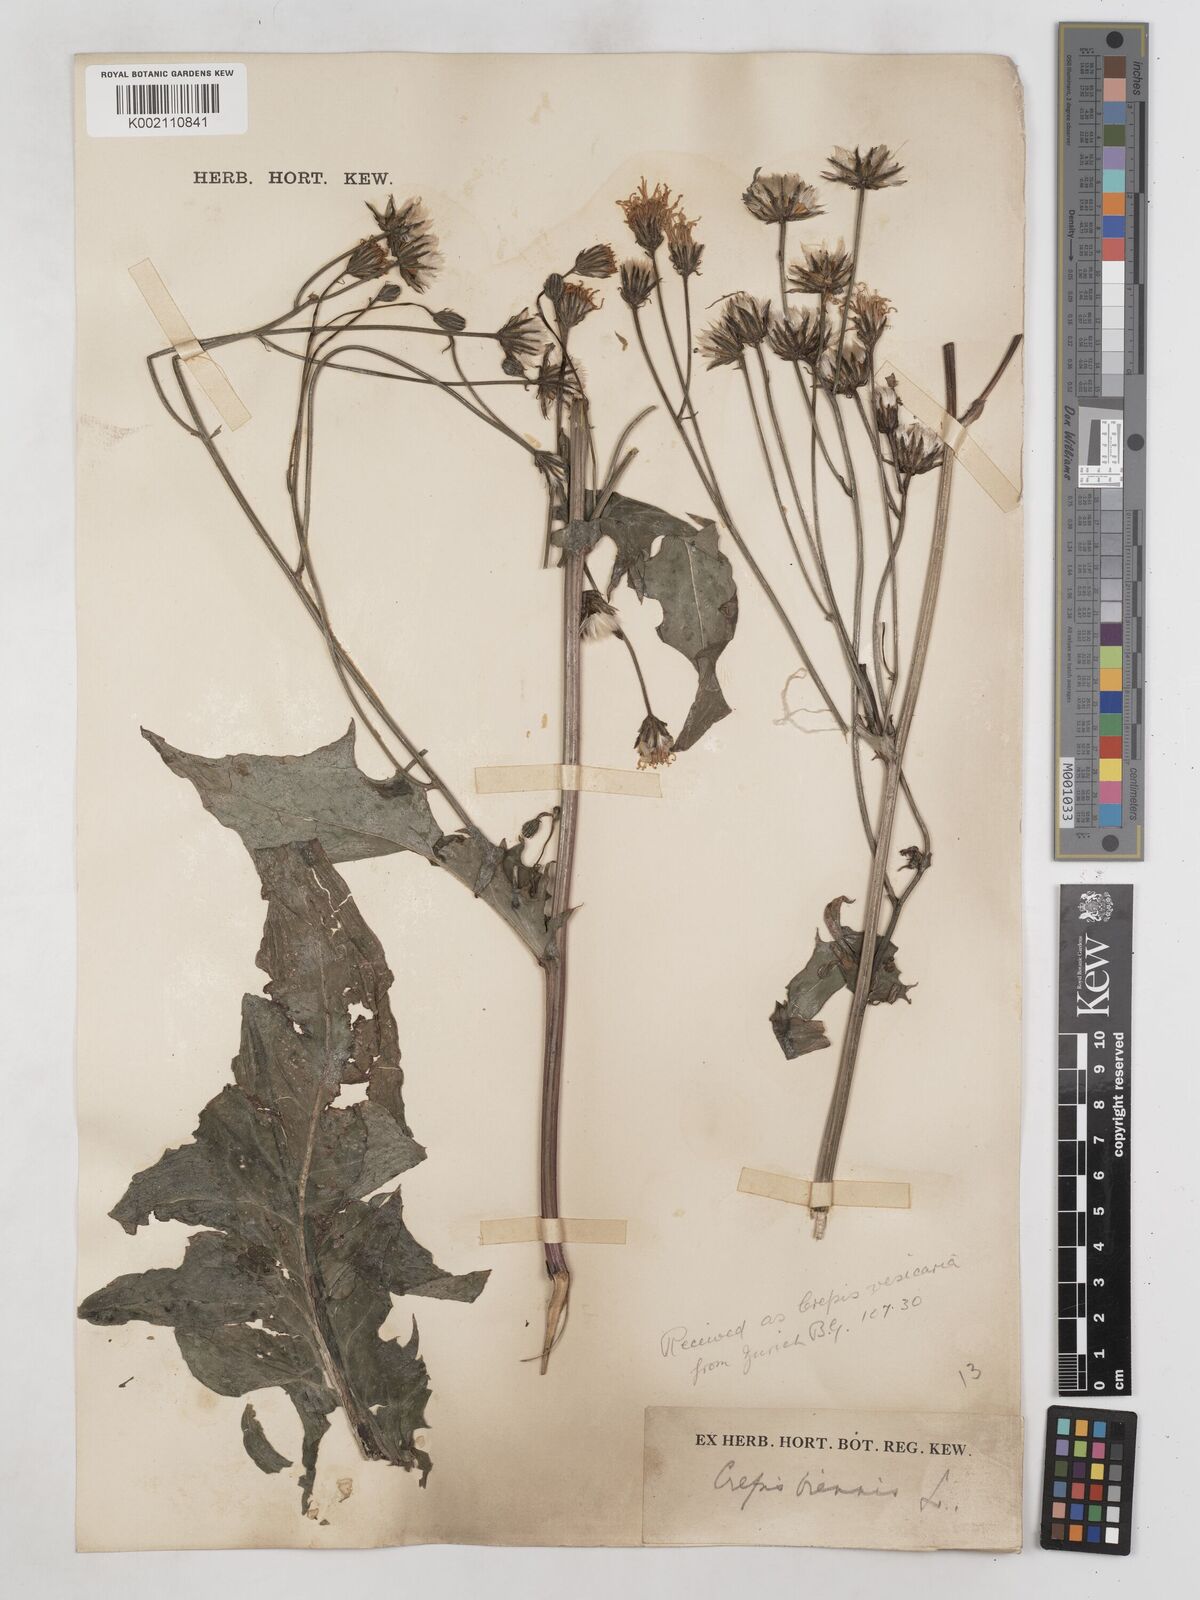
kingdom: Plantae
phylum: Tracheophyta
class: Magnoliopsida
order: Asterales
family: Asteraceae
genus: Crepis
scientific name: Crepis biennis
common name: Rough hawk's-beard
